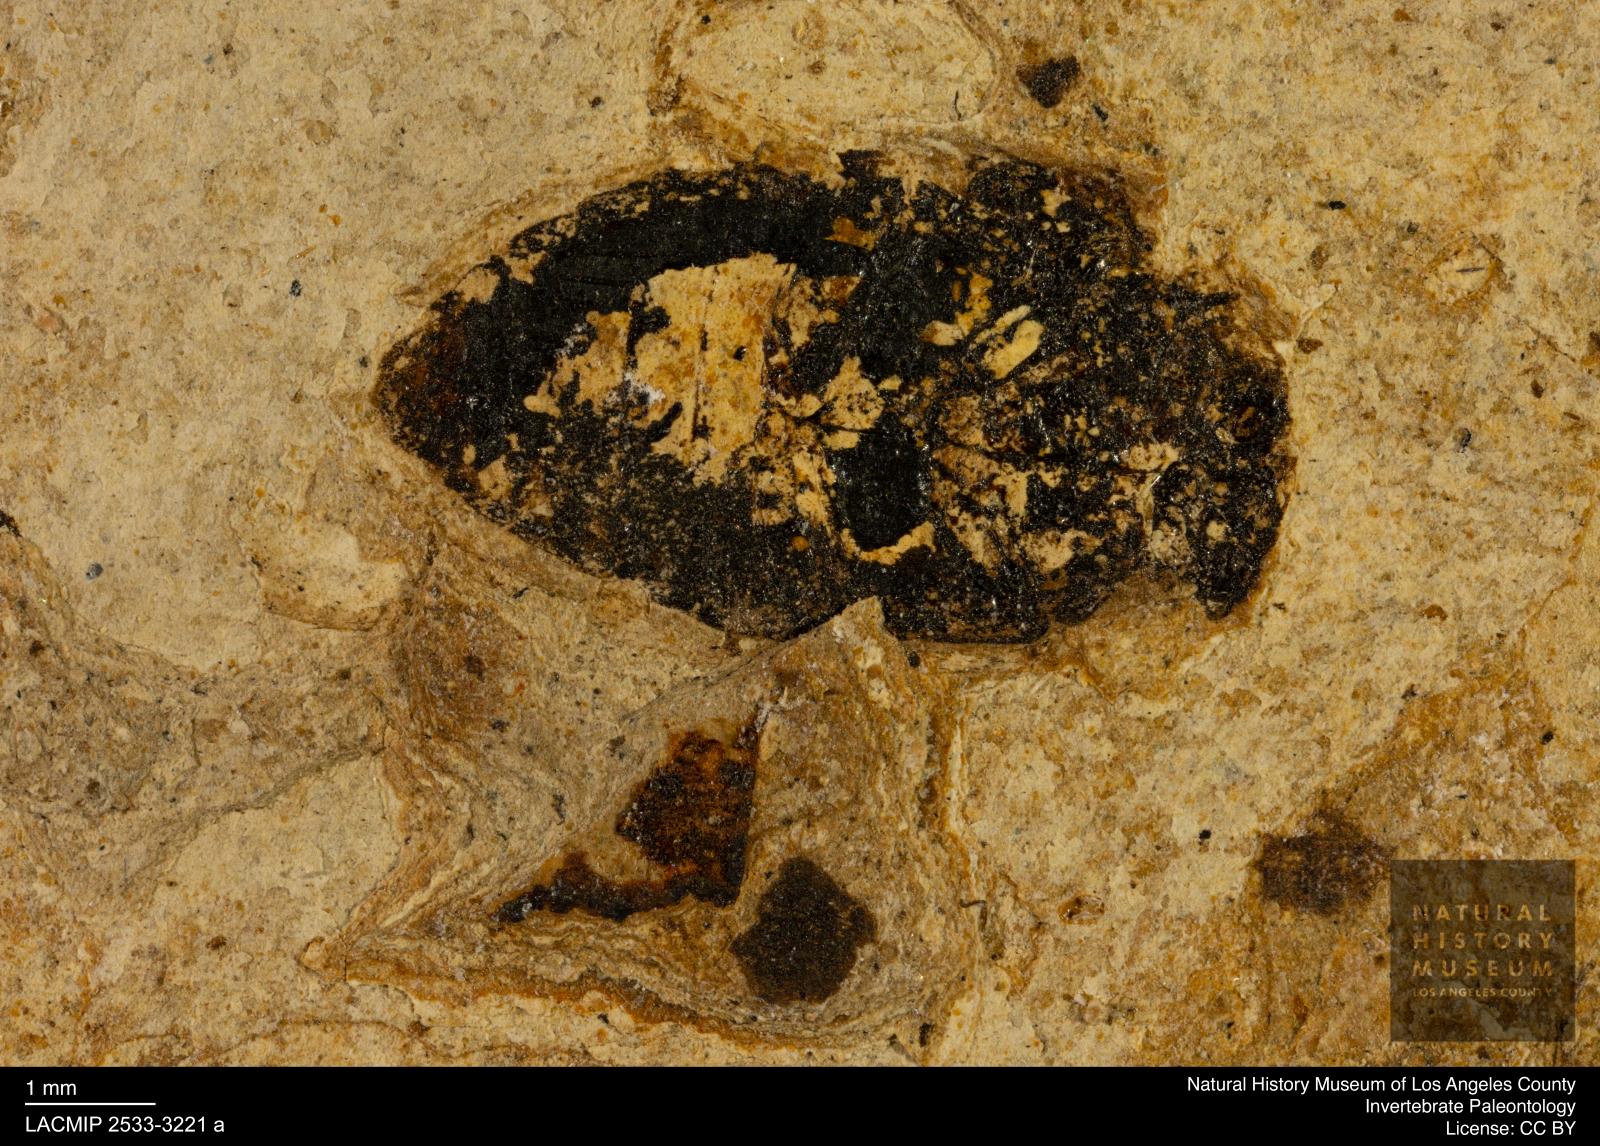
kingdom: Animalia
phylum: Arthropoda
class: Insecta
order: Coleoptera
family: Hydrophilidae
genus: Berosus
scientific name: Berosus morticinus
